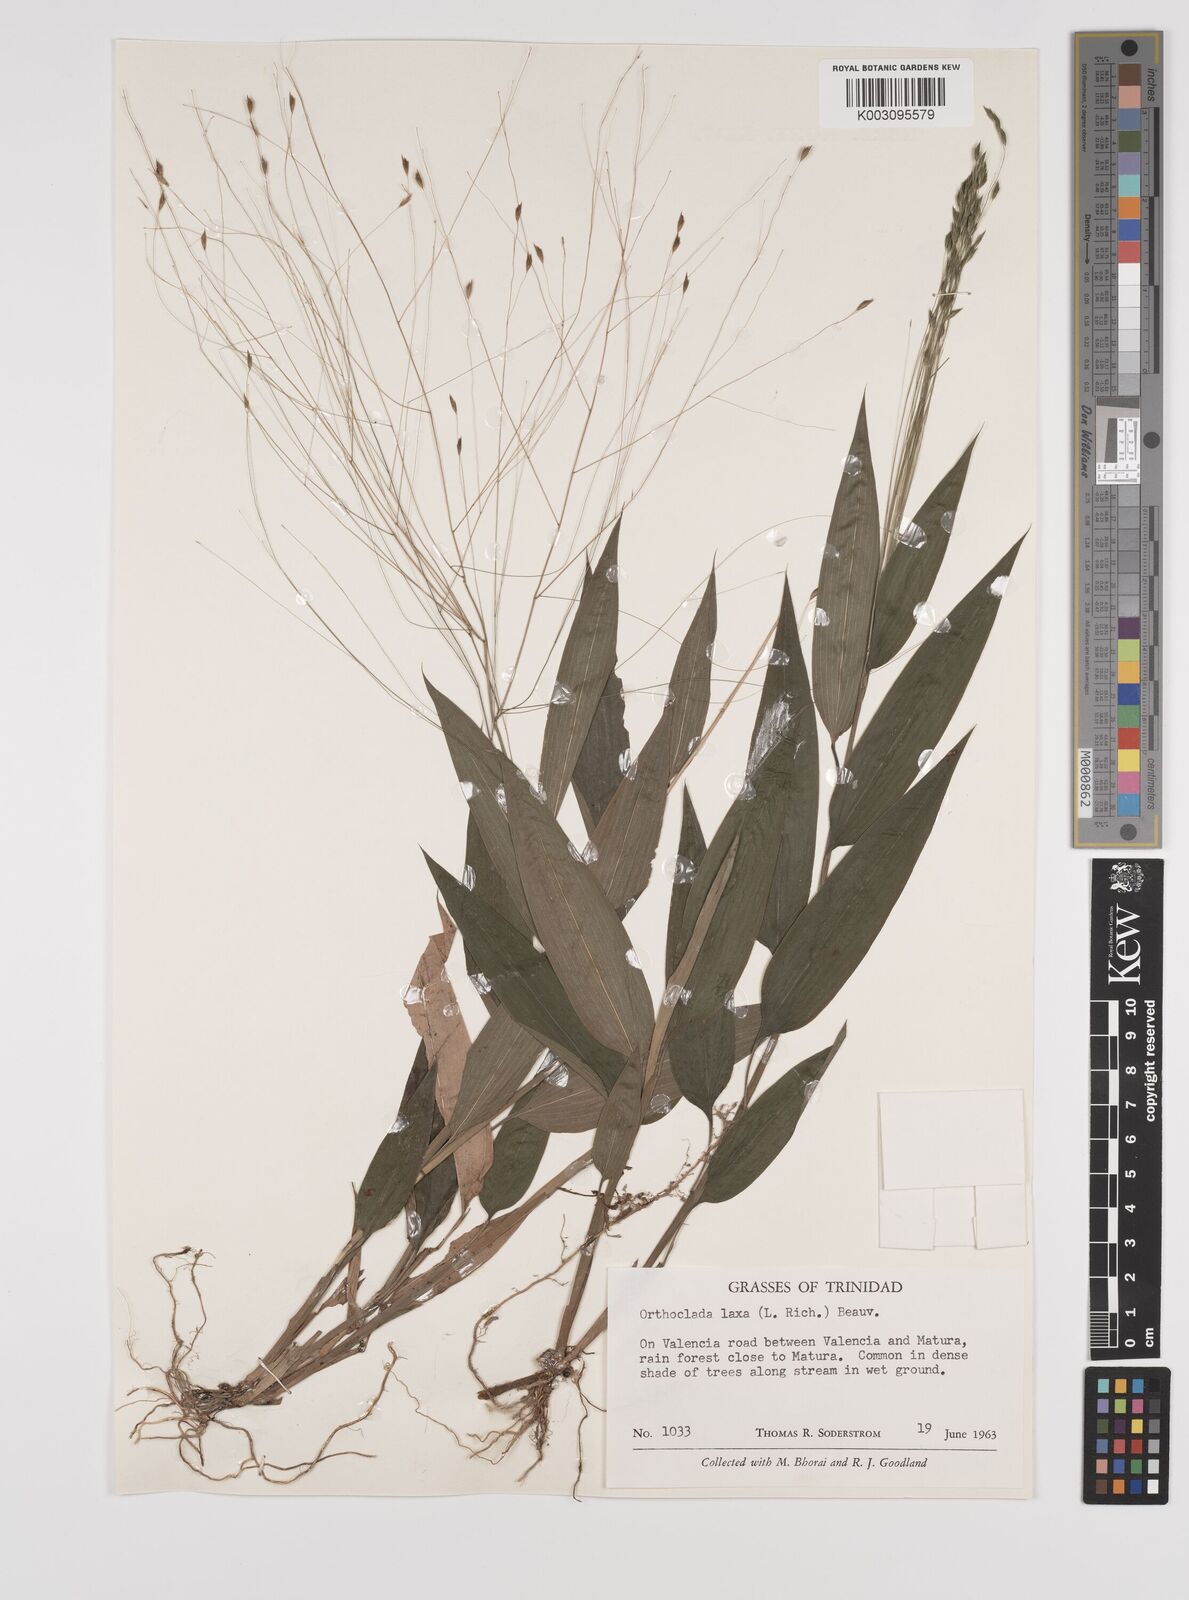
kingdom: Plantae
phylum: Tracheophyta
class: Liliopsida
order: Poales
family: Poaceae
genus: Orthoclada
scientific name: Orthoclada laxa
